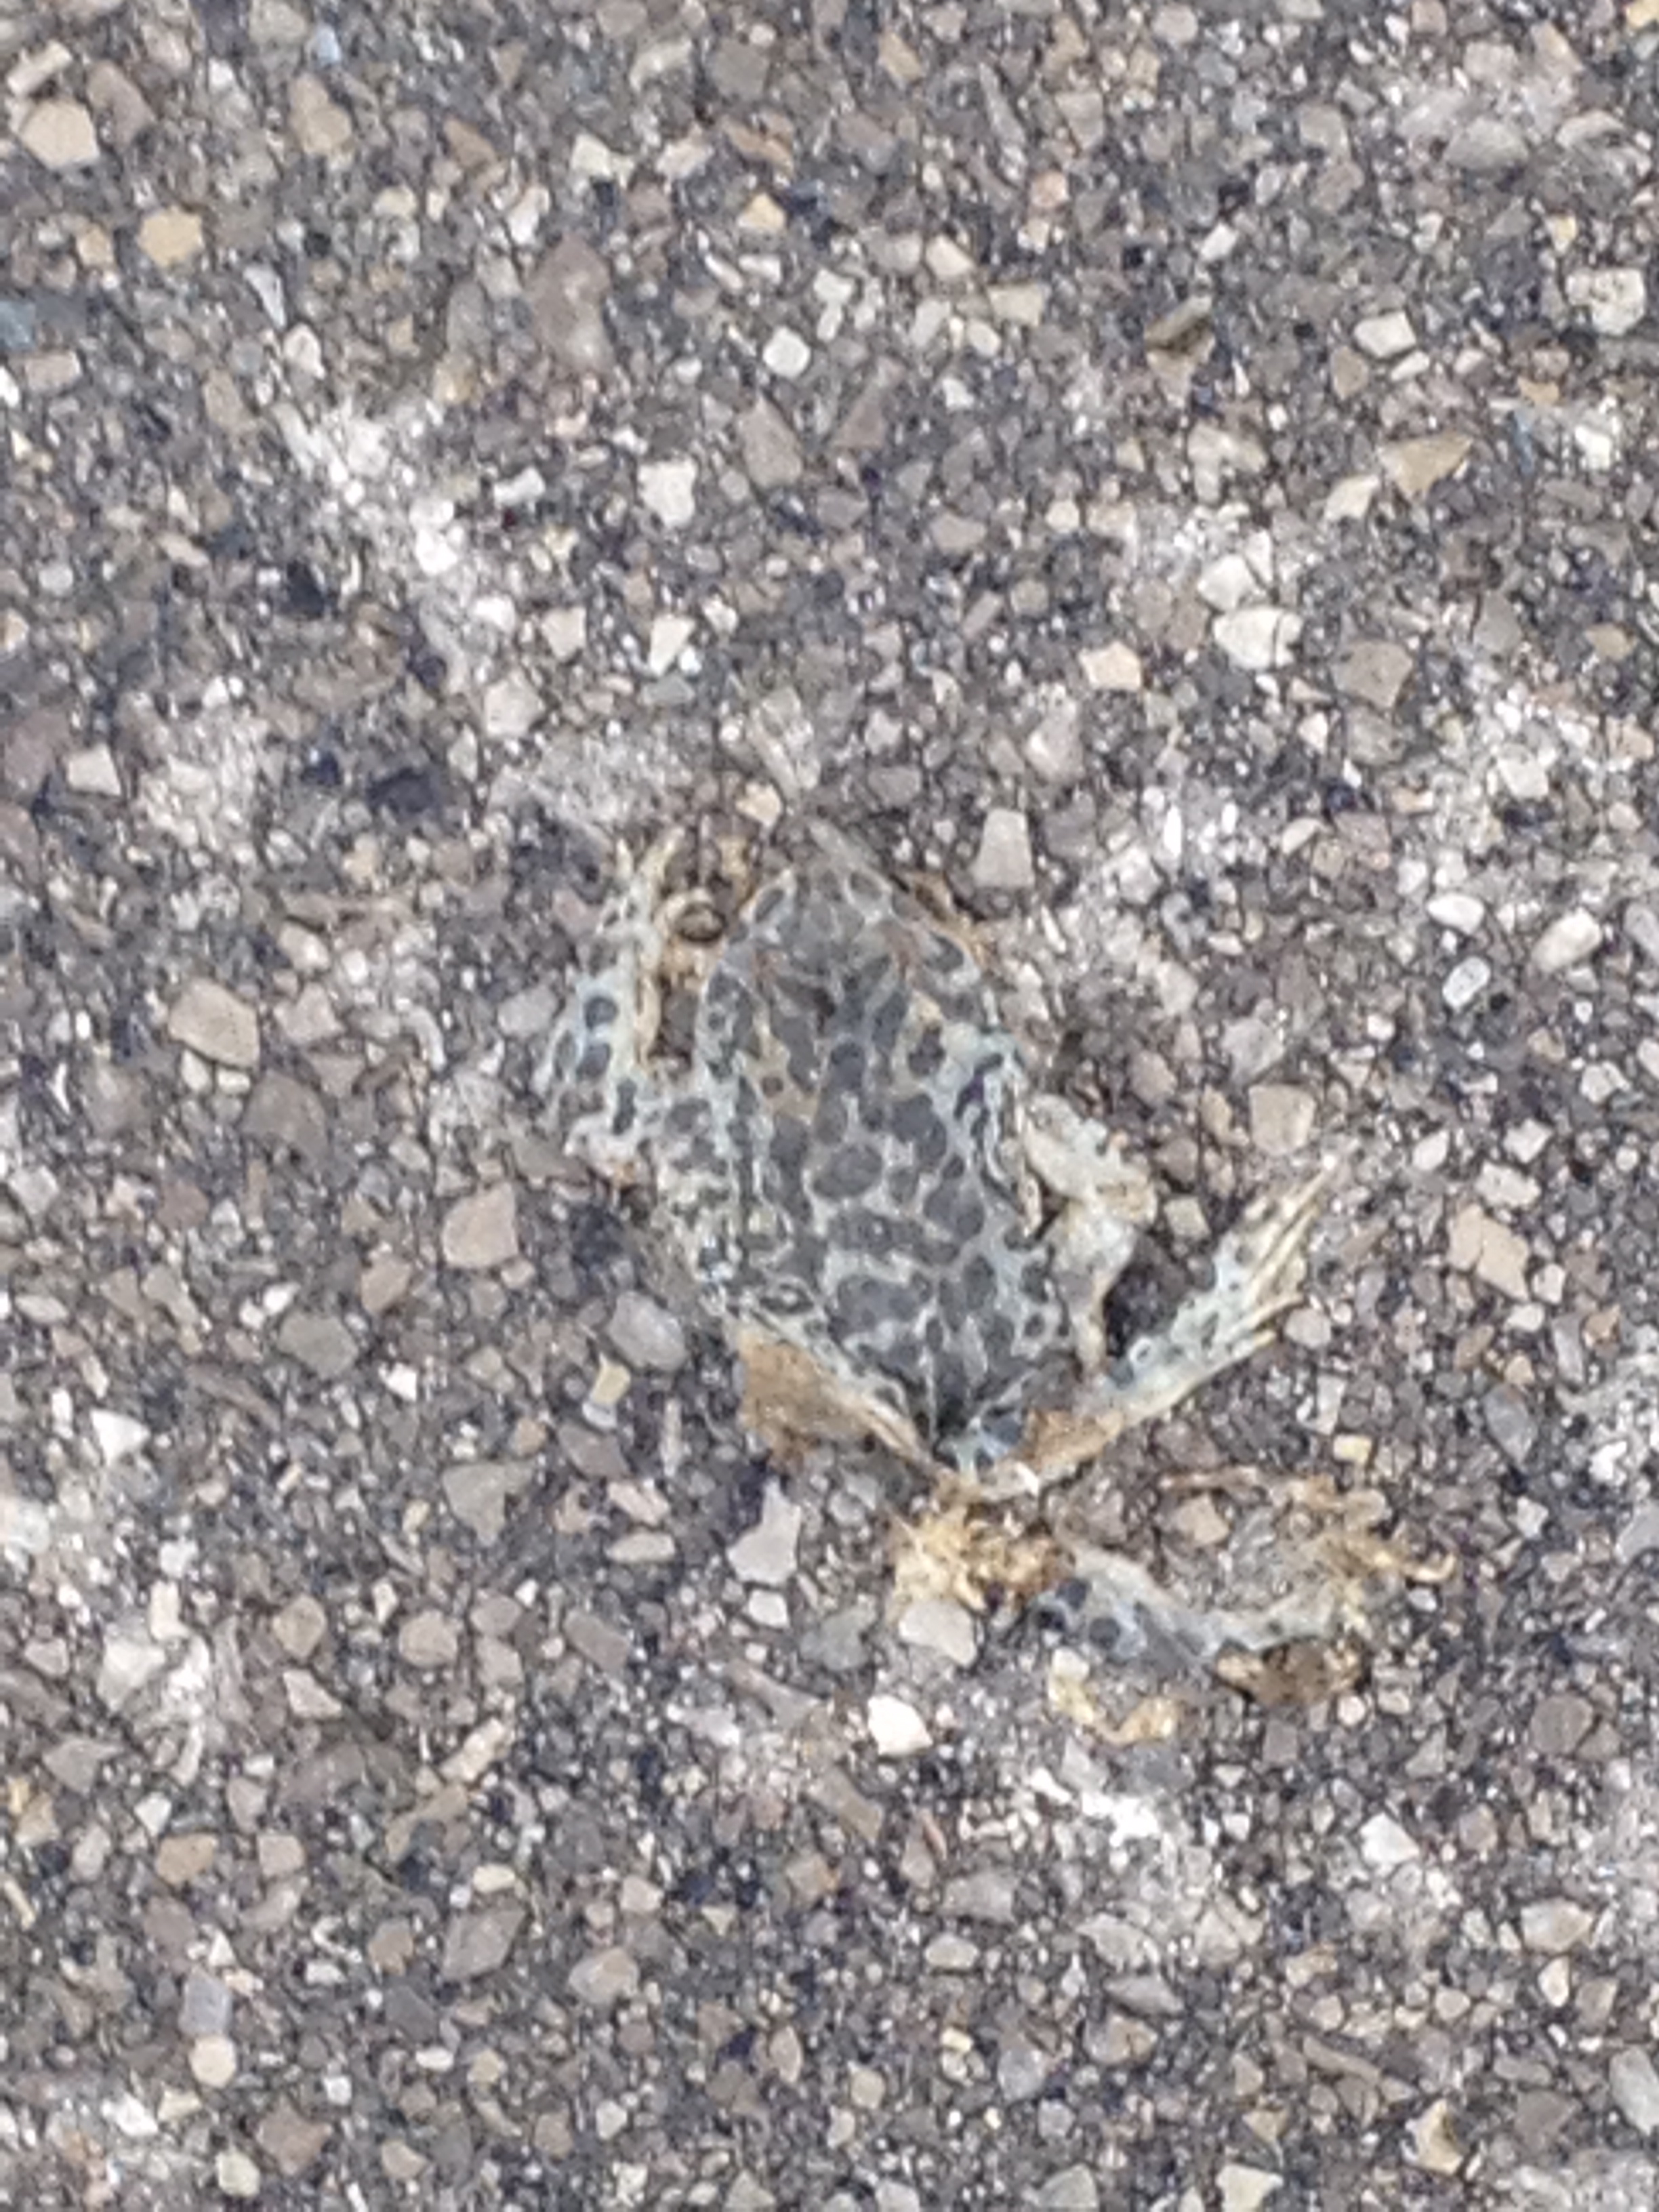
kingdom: Animalia
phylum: Chordata
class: Amphibia
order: Anura
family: Bufonidae
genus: Bufotes
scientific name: Bufotes viridis
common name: European green toad
